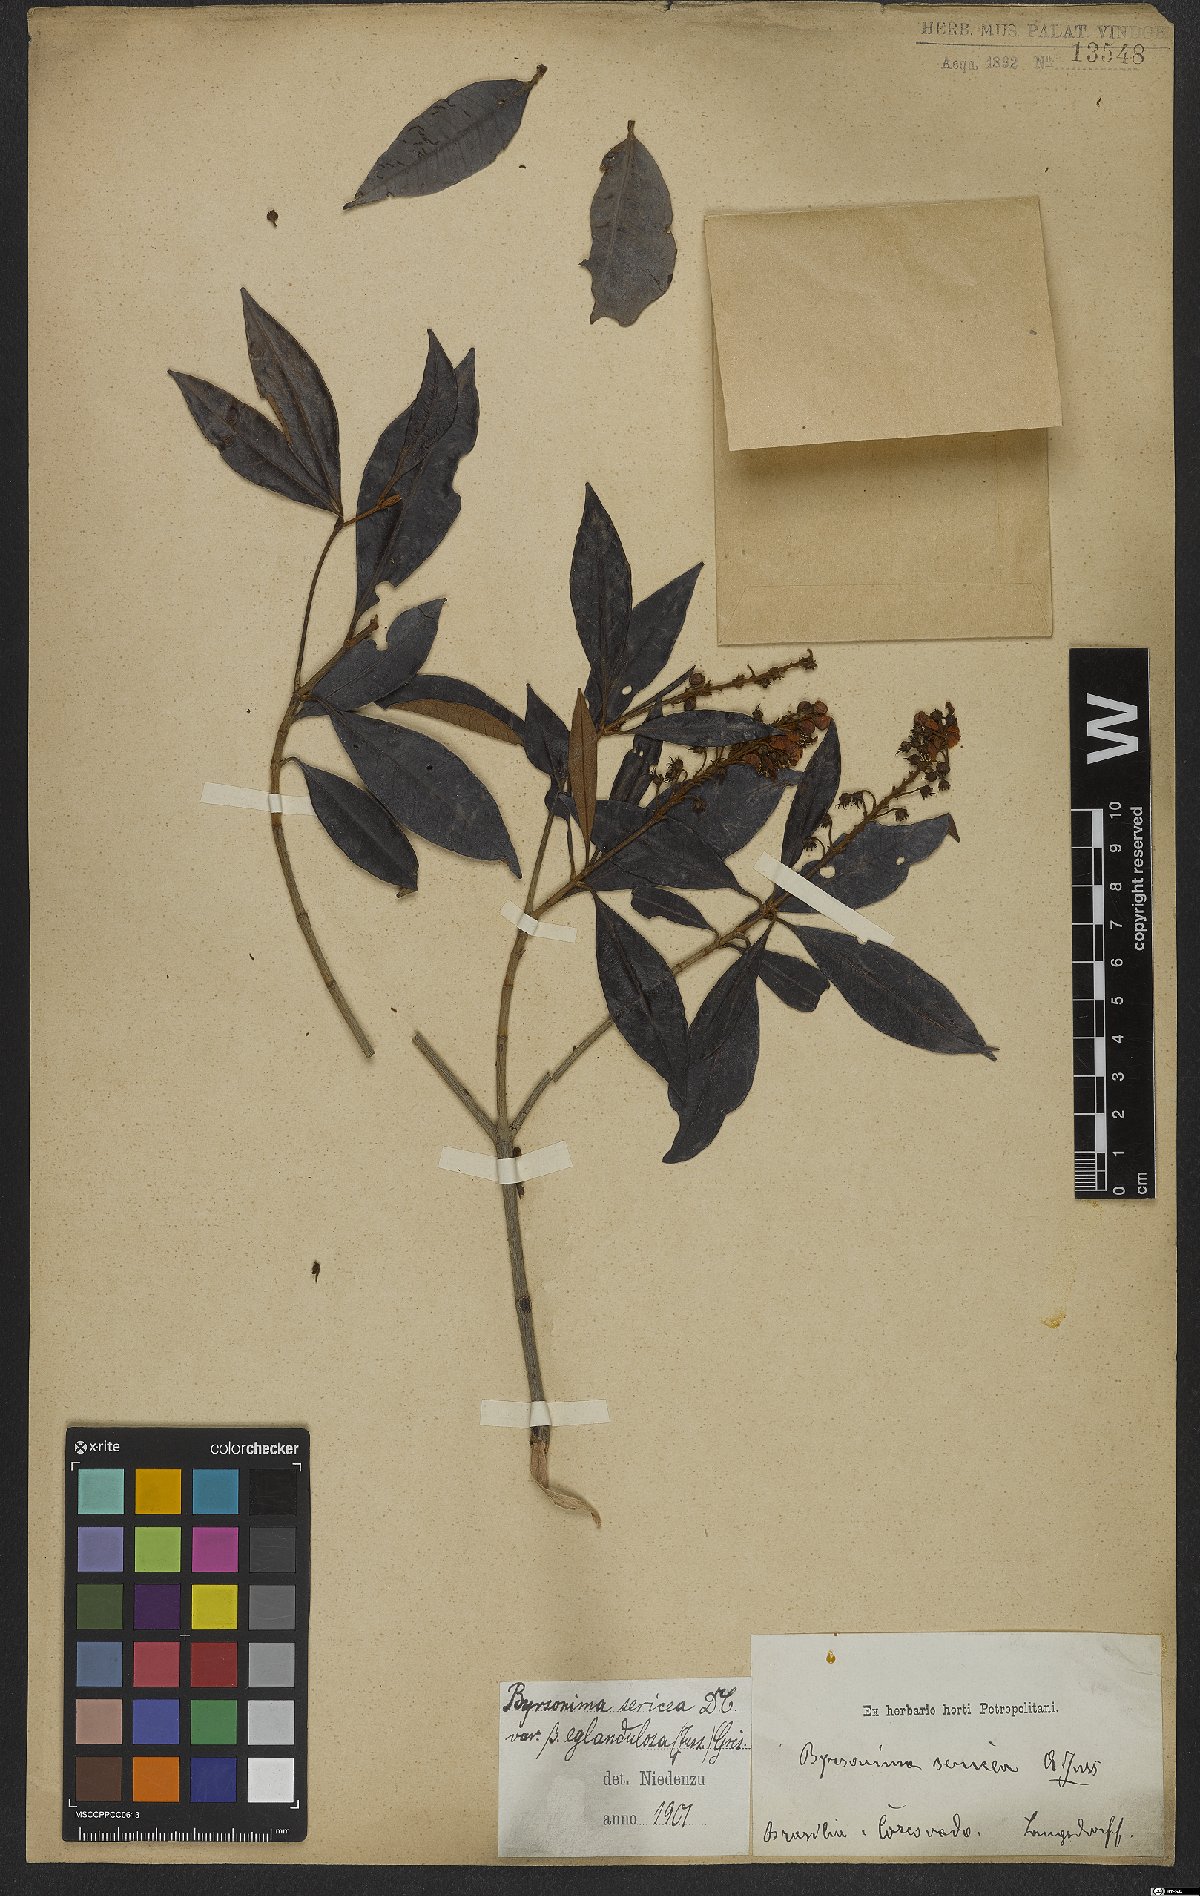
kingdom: Plantae
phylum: Tracheophyta
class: Magnoliopsida
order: Malpighiales
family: Malpighiaceae
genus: Byrsonima
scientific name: Byrsonima sericea
